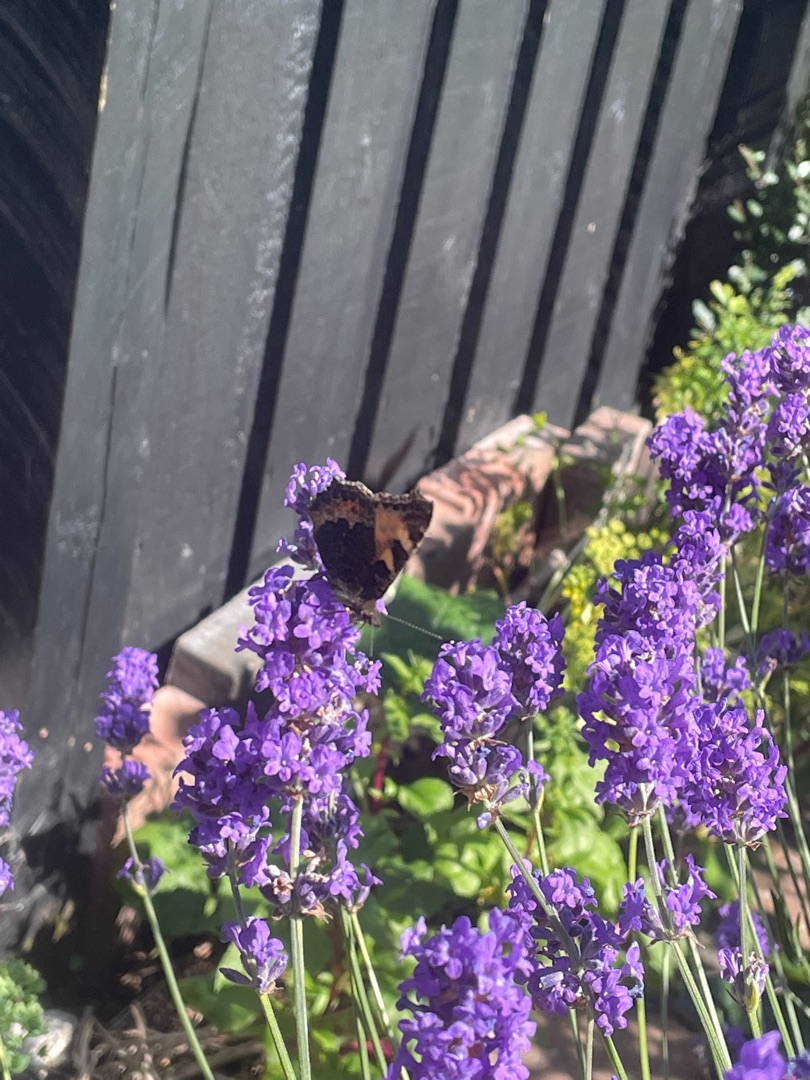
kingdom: Animalia
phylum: Arthropoda
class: Insecta
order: Lepidoptera
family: Nymphalidae
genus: Aglais
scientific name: Aglais urticae
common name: Nældens takvinge
